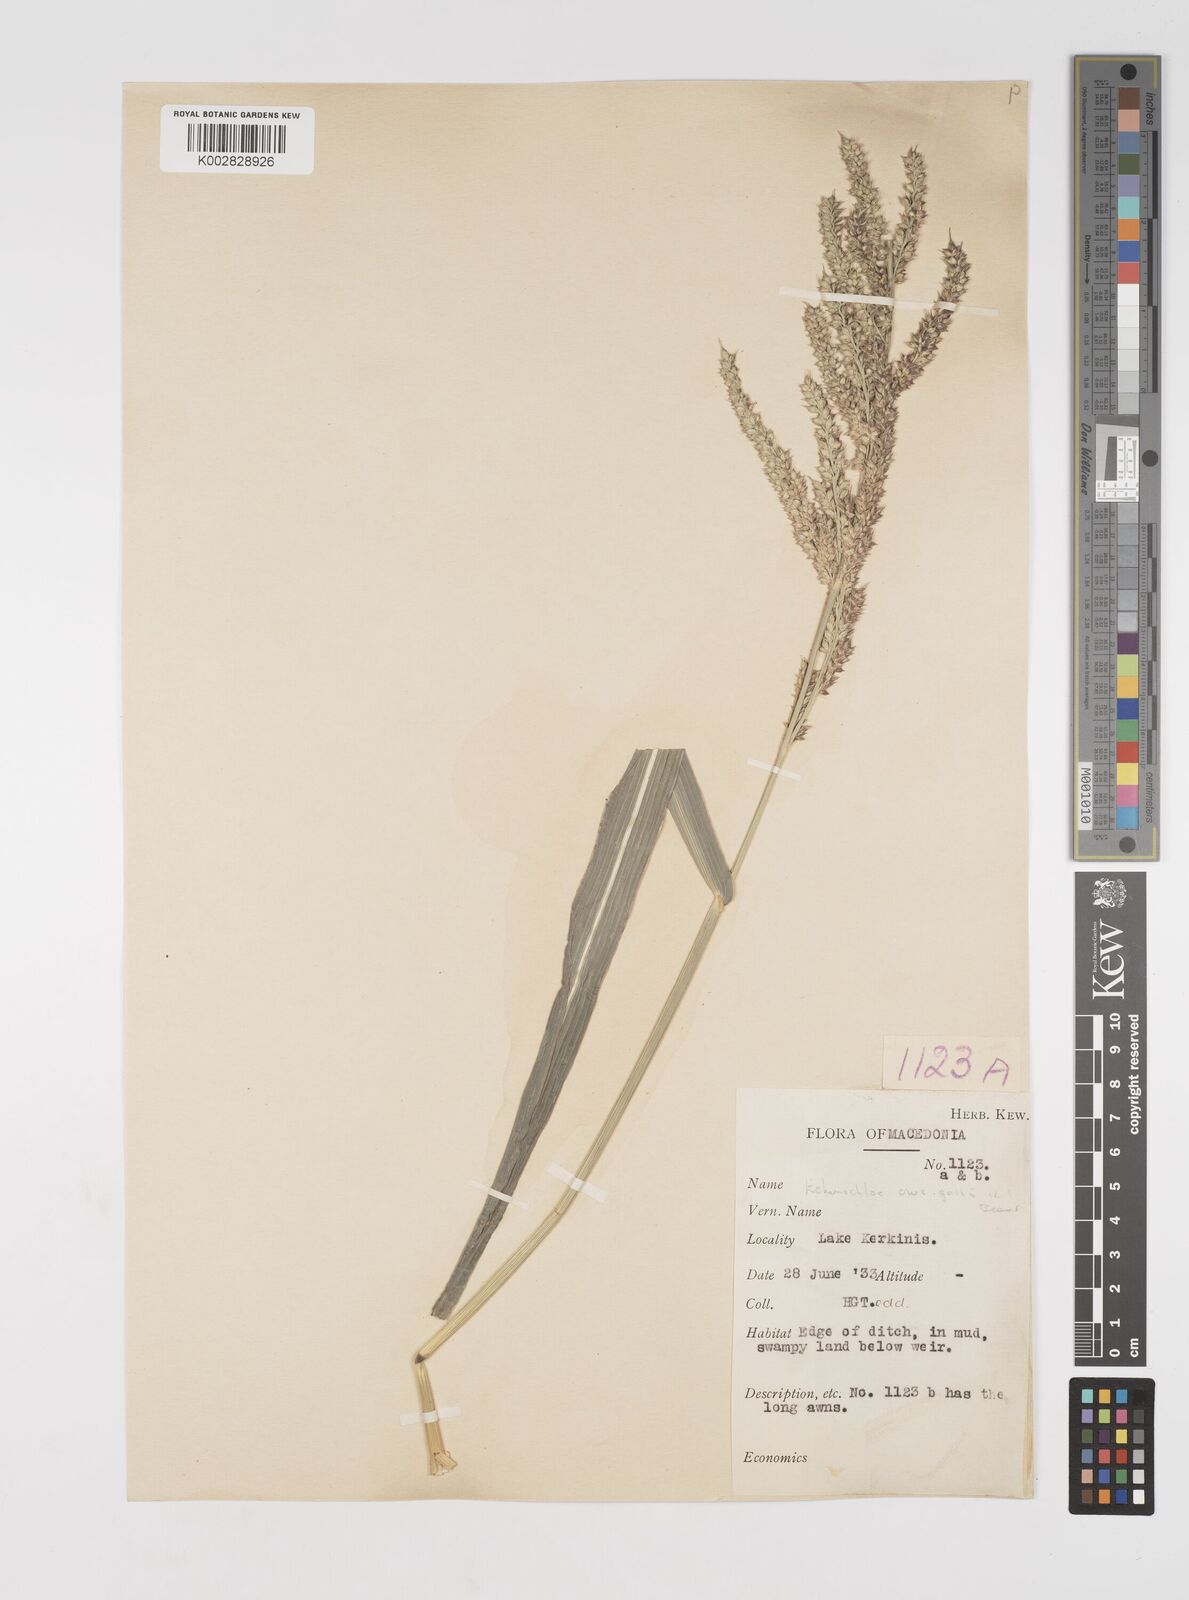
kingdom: Plantae
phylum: Tracheophyta
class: Liliopsida
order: Poales
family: Poaceae
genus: Echinochloa
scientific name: Echinochloa crus-galli
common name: Cockspur
